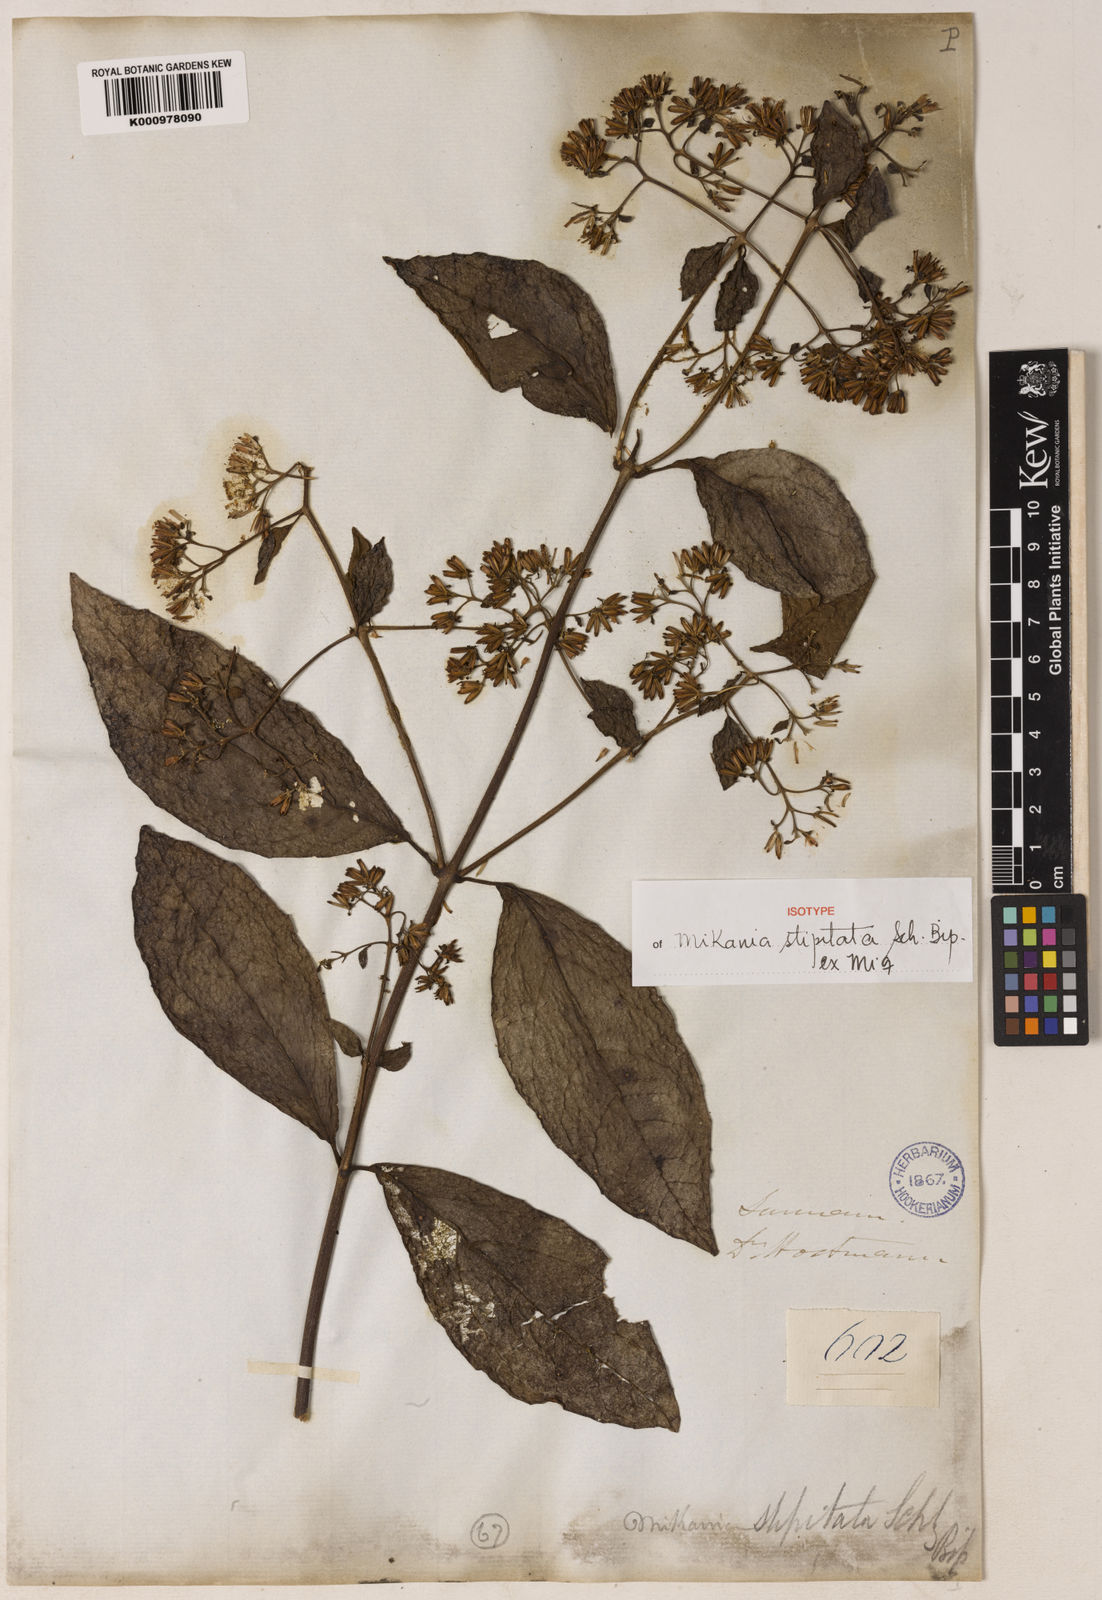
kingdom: Plantae
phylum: Tracheophyta
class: Magnoliopsida
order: Asterales
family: Asteraceae
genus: Mikania
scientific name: Mikania parviflora
